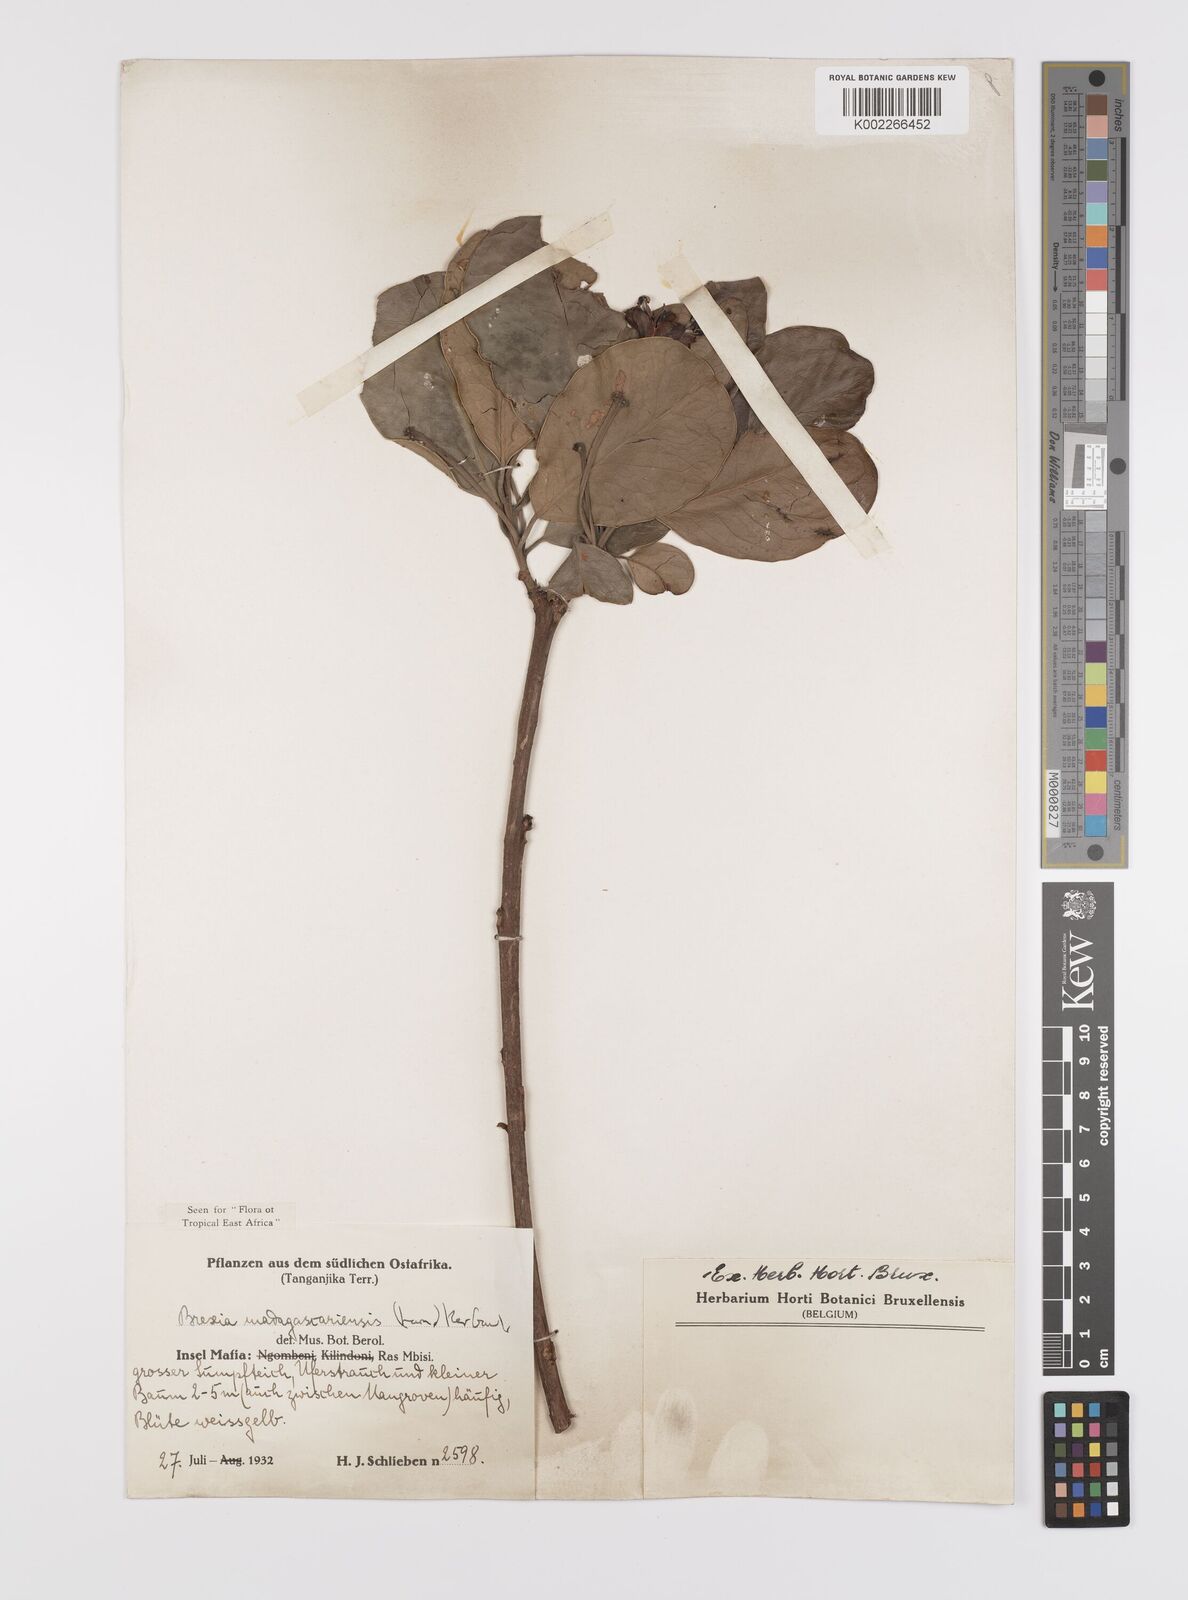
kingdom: Plantae
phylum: Tracheophyta
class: Magnoliopsida
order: Celastrales
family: Celastraceae
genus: Brexia
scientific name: Brexia madagascariensis
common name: Brexia
